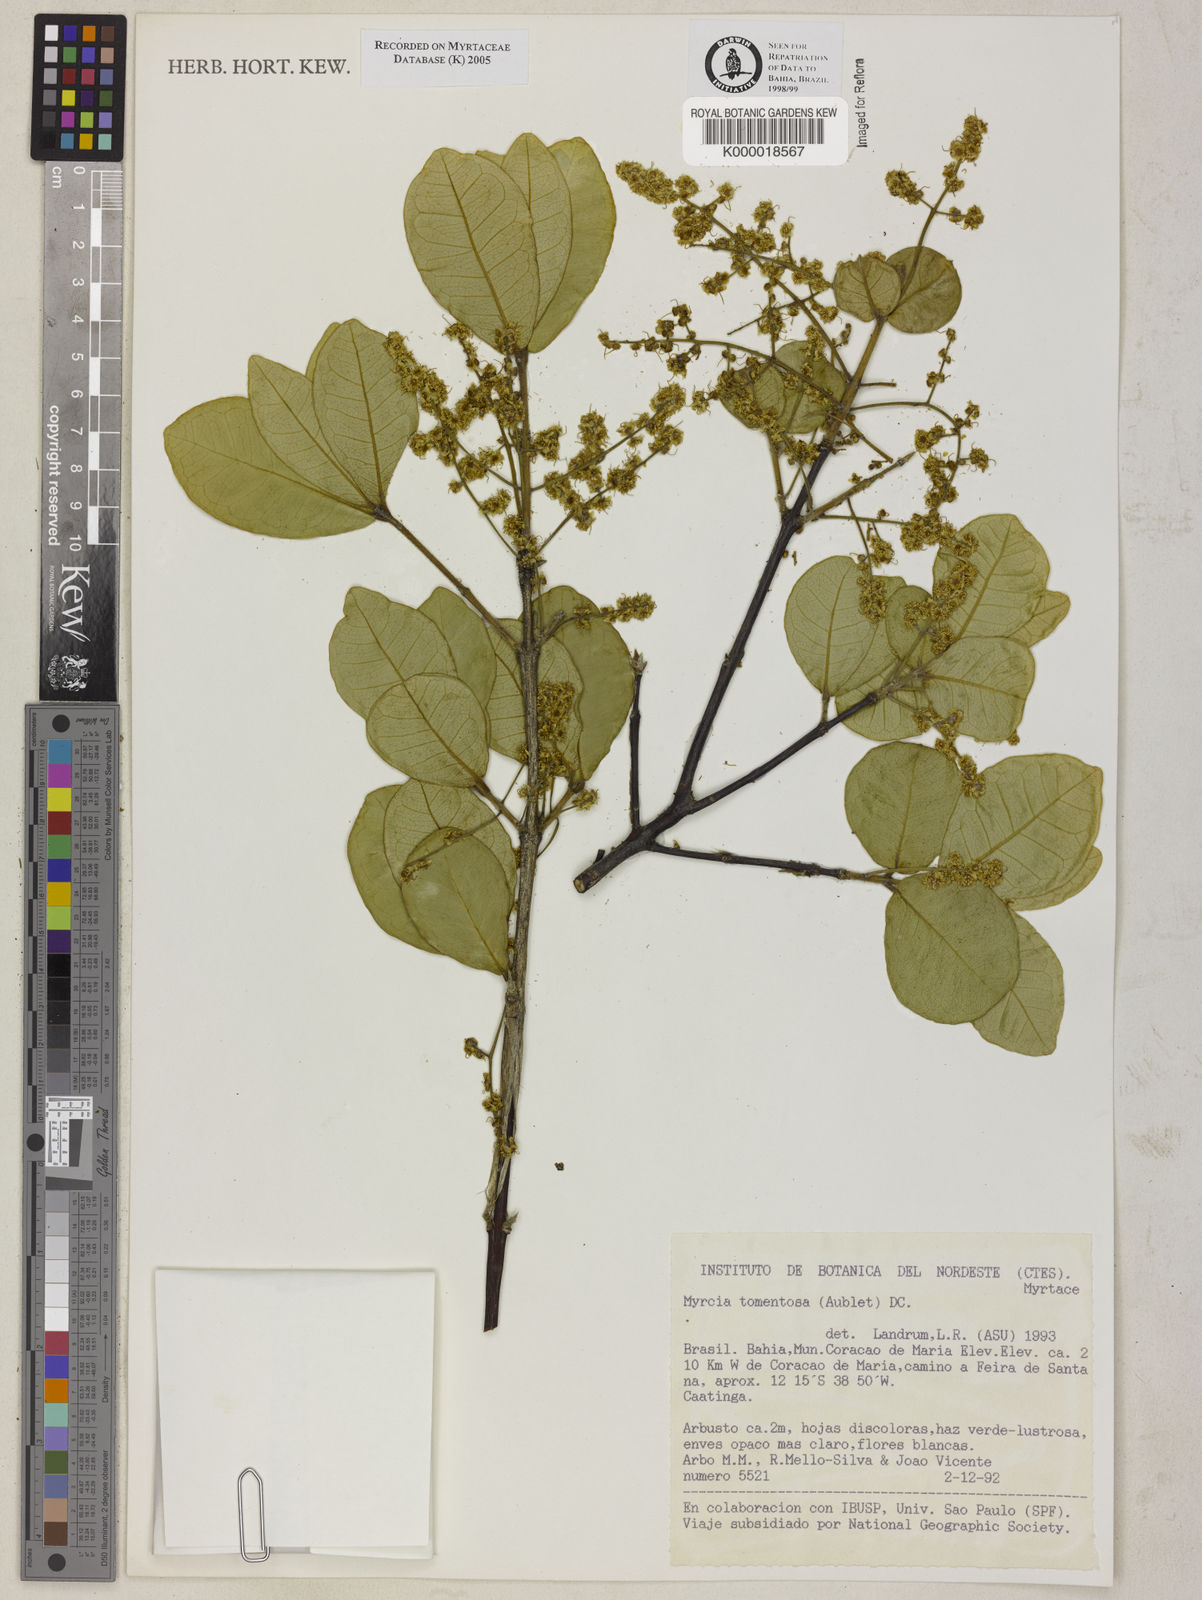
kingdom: Plantae
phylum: Tracheophyta
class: Magnoliopsida
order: Myrtales
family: Myrtaceae
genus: Myrcia
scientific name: Myrcia tomentosa
